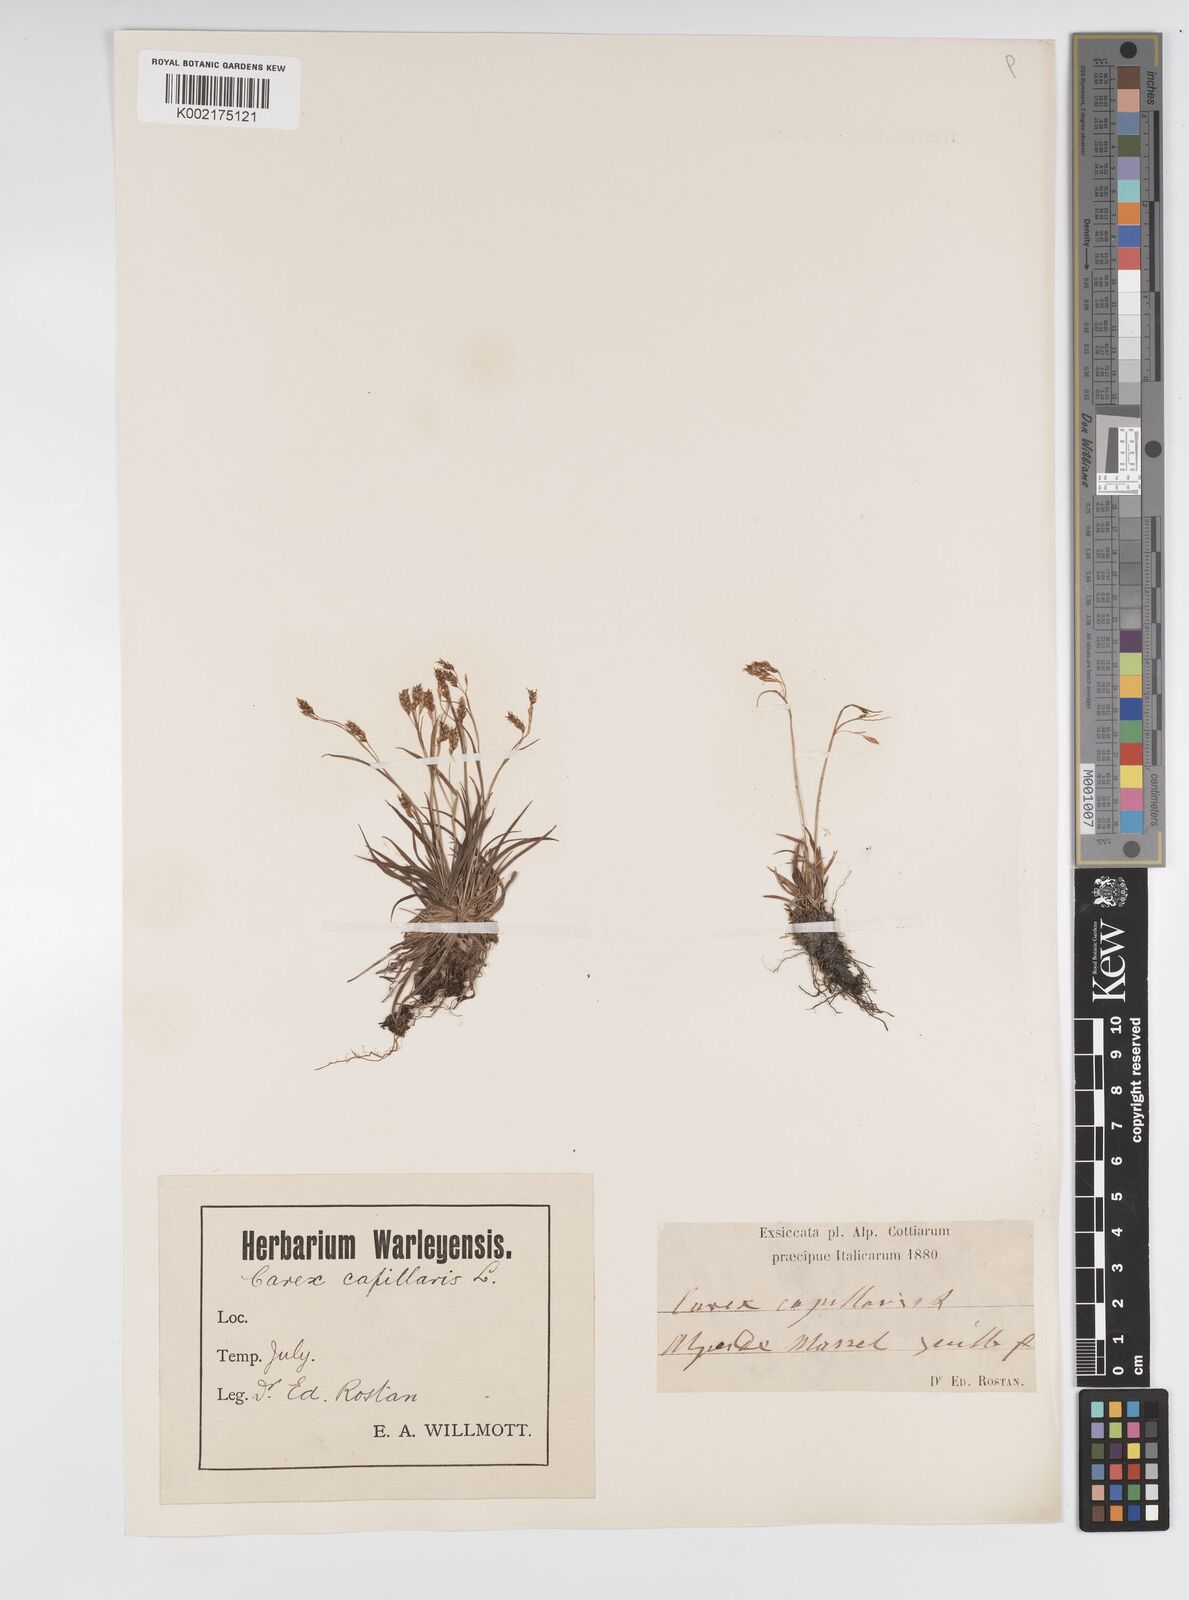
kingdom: Plantae
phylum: Tracheophyta
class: Liliopsida
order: Poales
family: Cyperaceae
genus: Carex
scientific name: Carex capillaris
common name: Hair sedge
